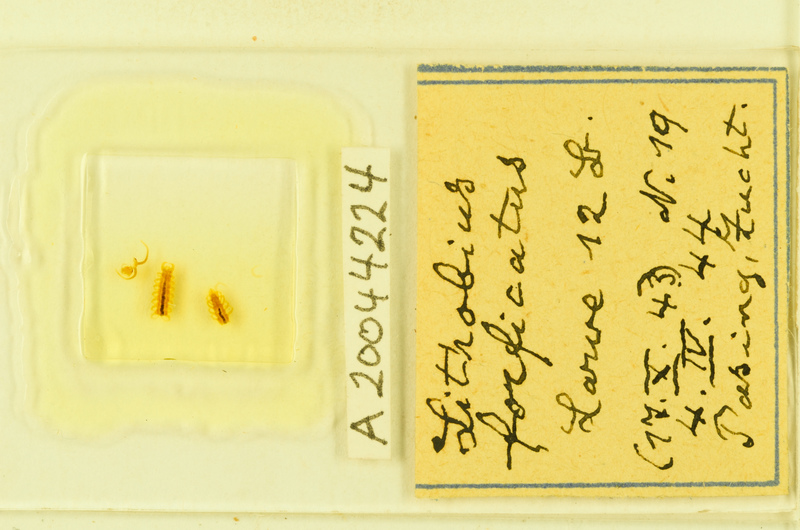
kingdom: Animalia
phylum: Arthropoda
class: Chilopoda
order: Lithobiomorpha
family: Lithobiidae
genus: Lithobius
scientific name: Lithobius forficatus
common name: Centipede
